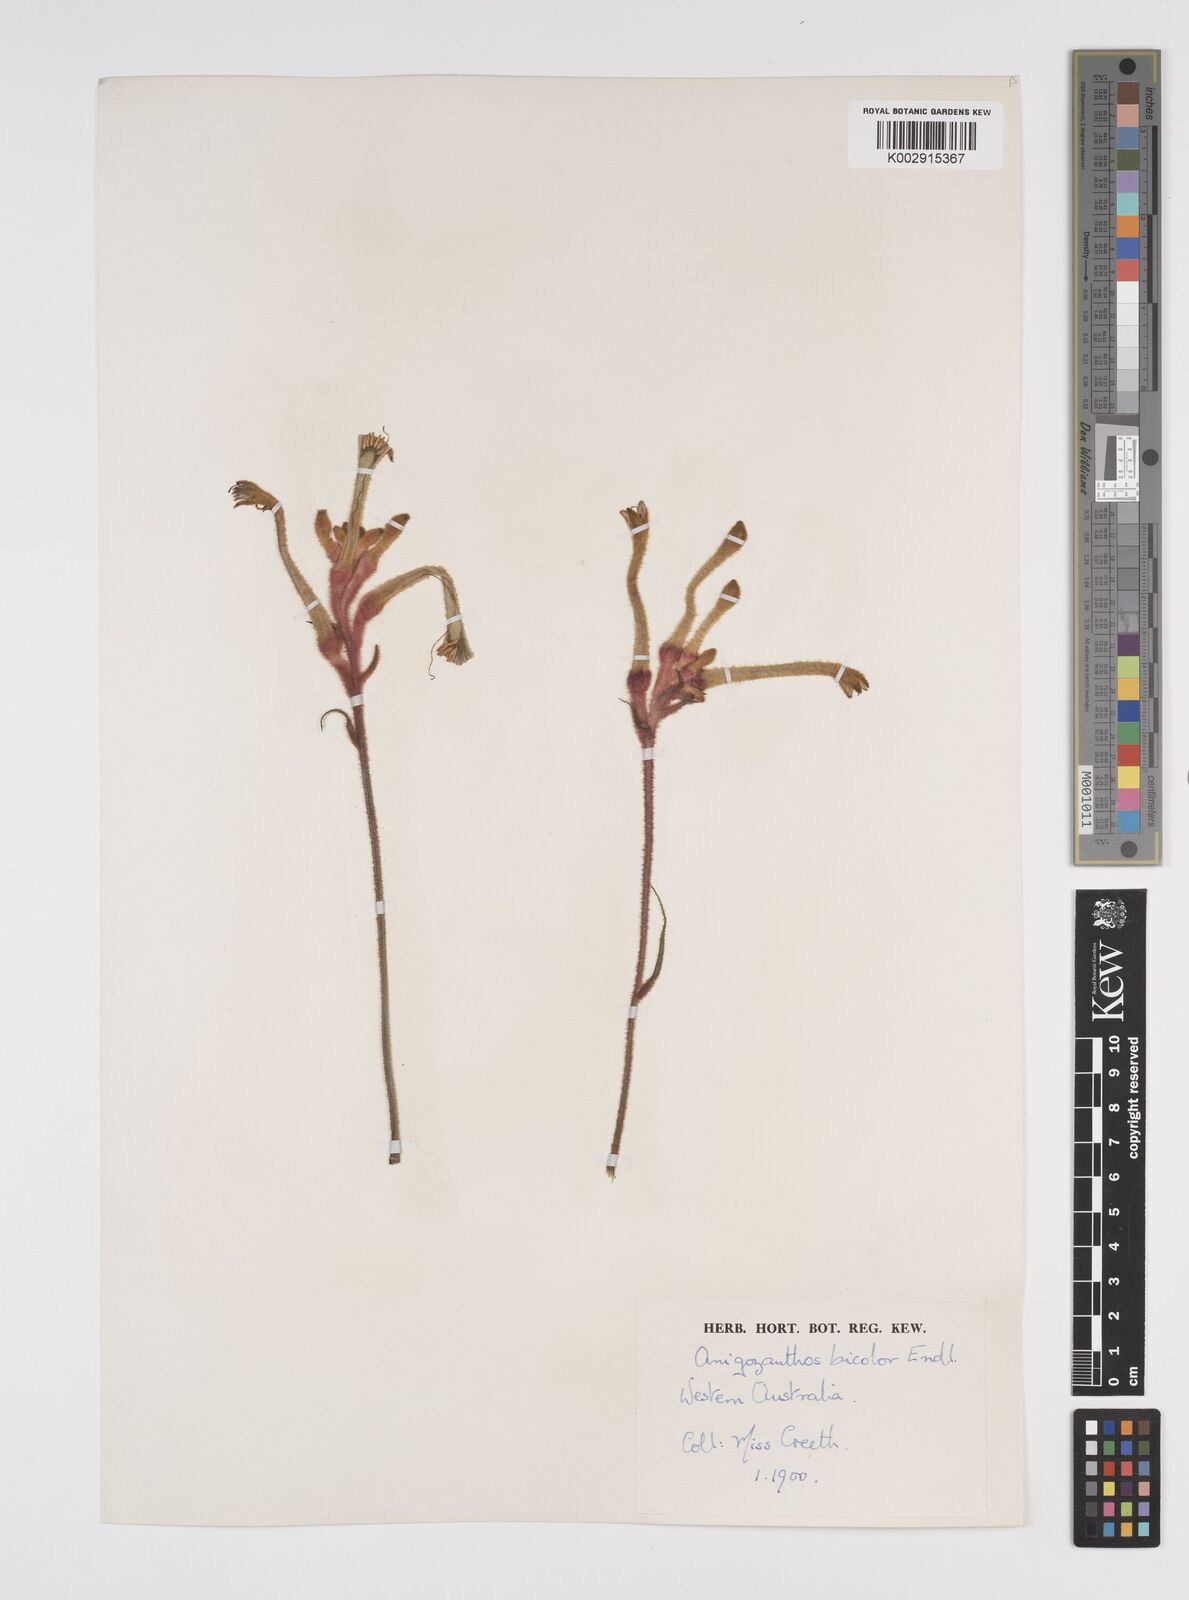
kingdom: Plantae
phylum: Tracheophyta
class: Liliopsida
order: Commelinales
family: Haemodoraceae
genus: Anigozanthos
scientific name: Anigozanthos bicolor
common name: Little kangaroo-paw
